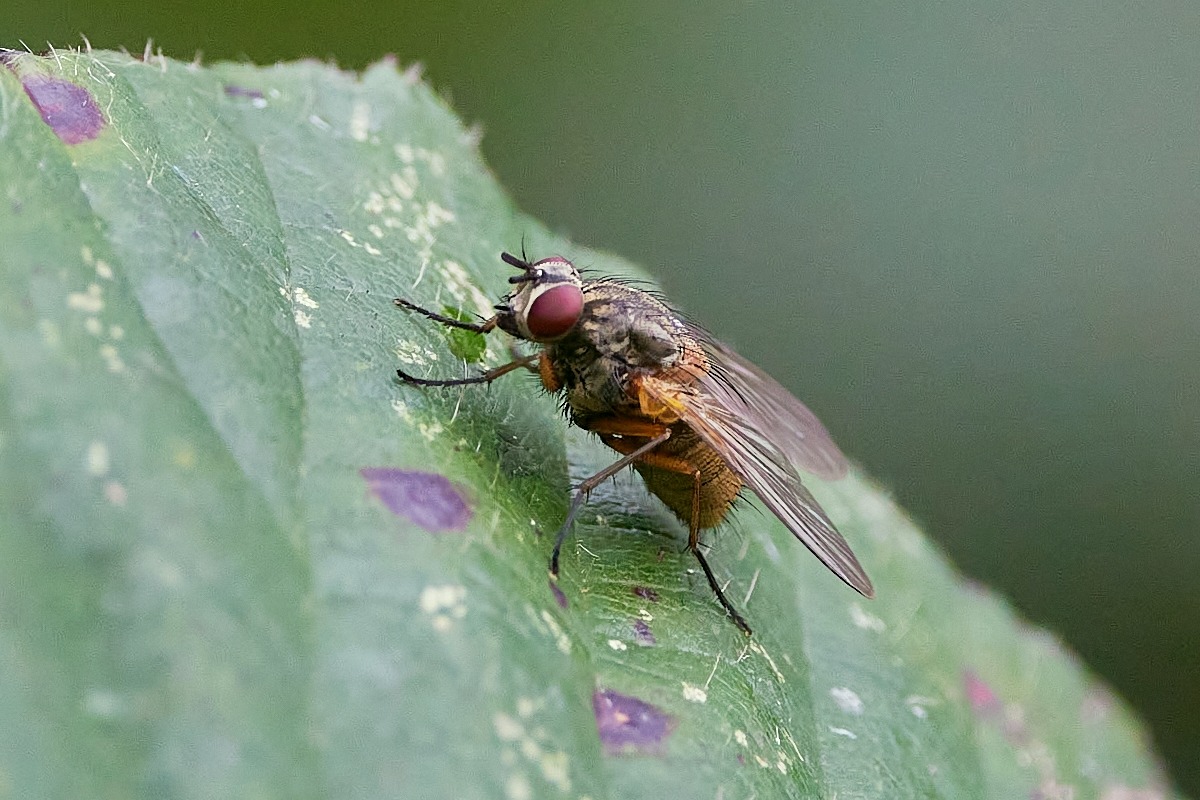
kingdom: Animalia
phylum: Arthropoda
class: Insecta
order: Diptera
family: Muscidae
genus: Mydaea
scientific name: Mydaea corni
